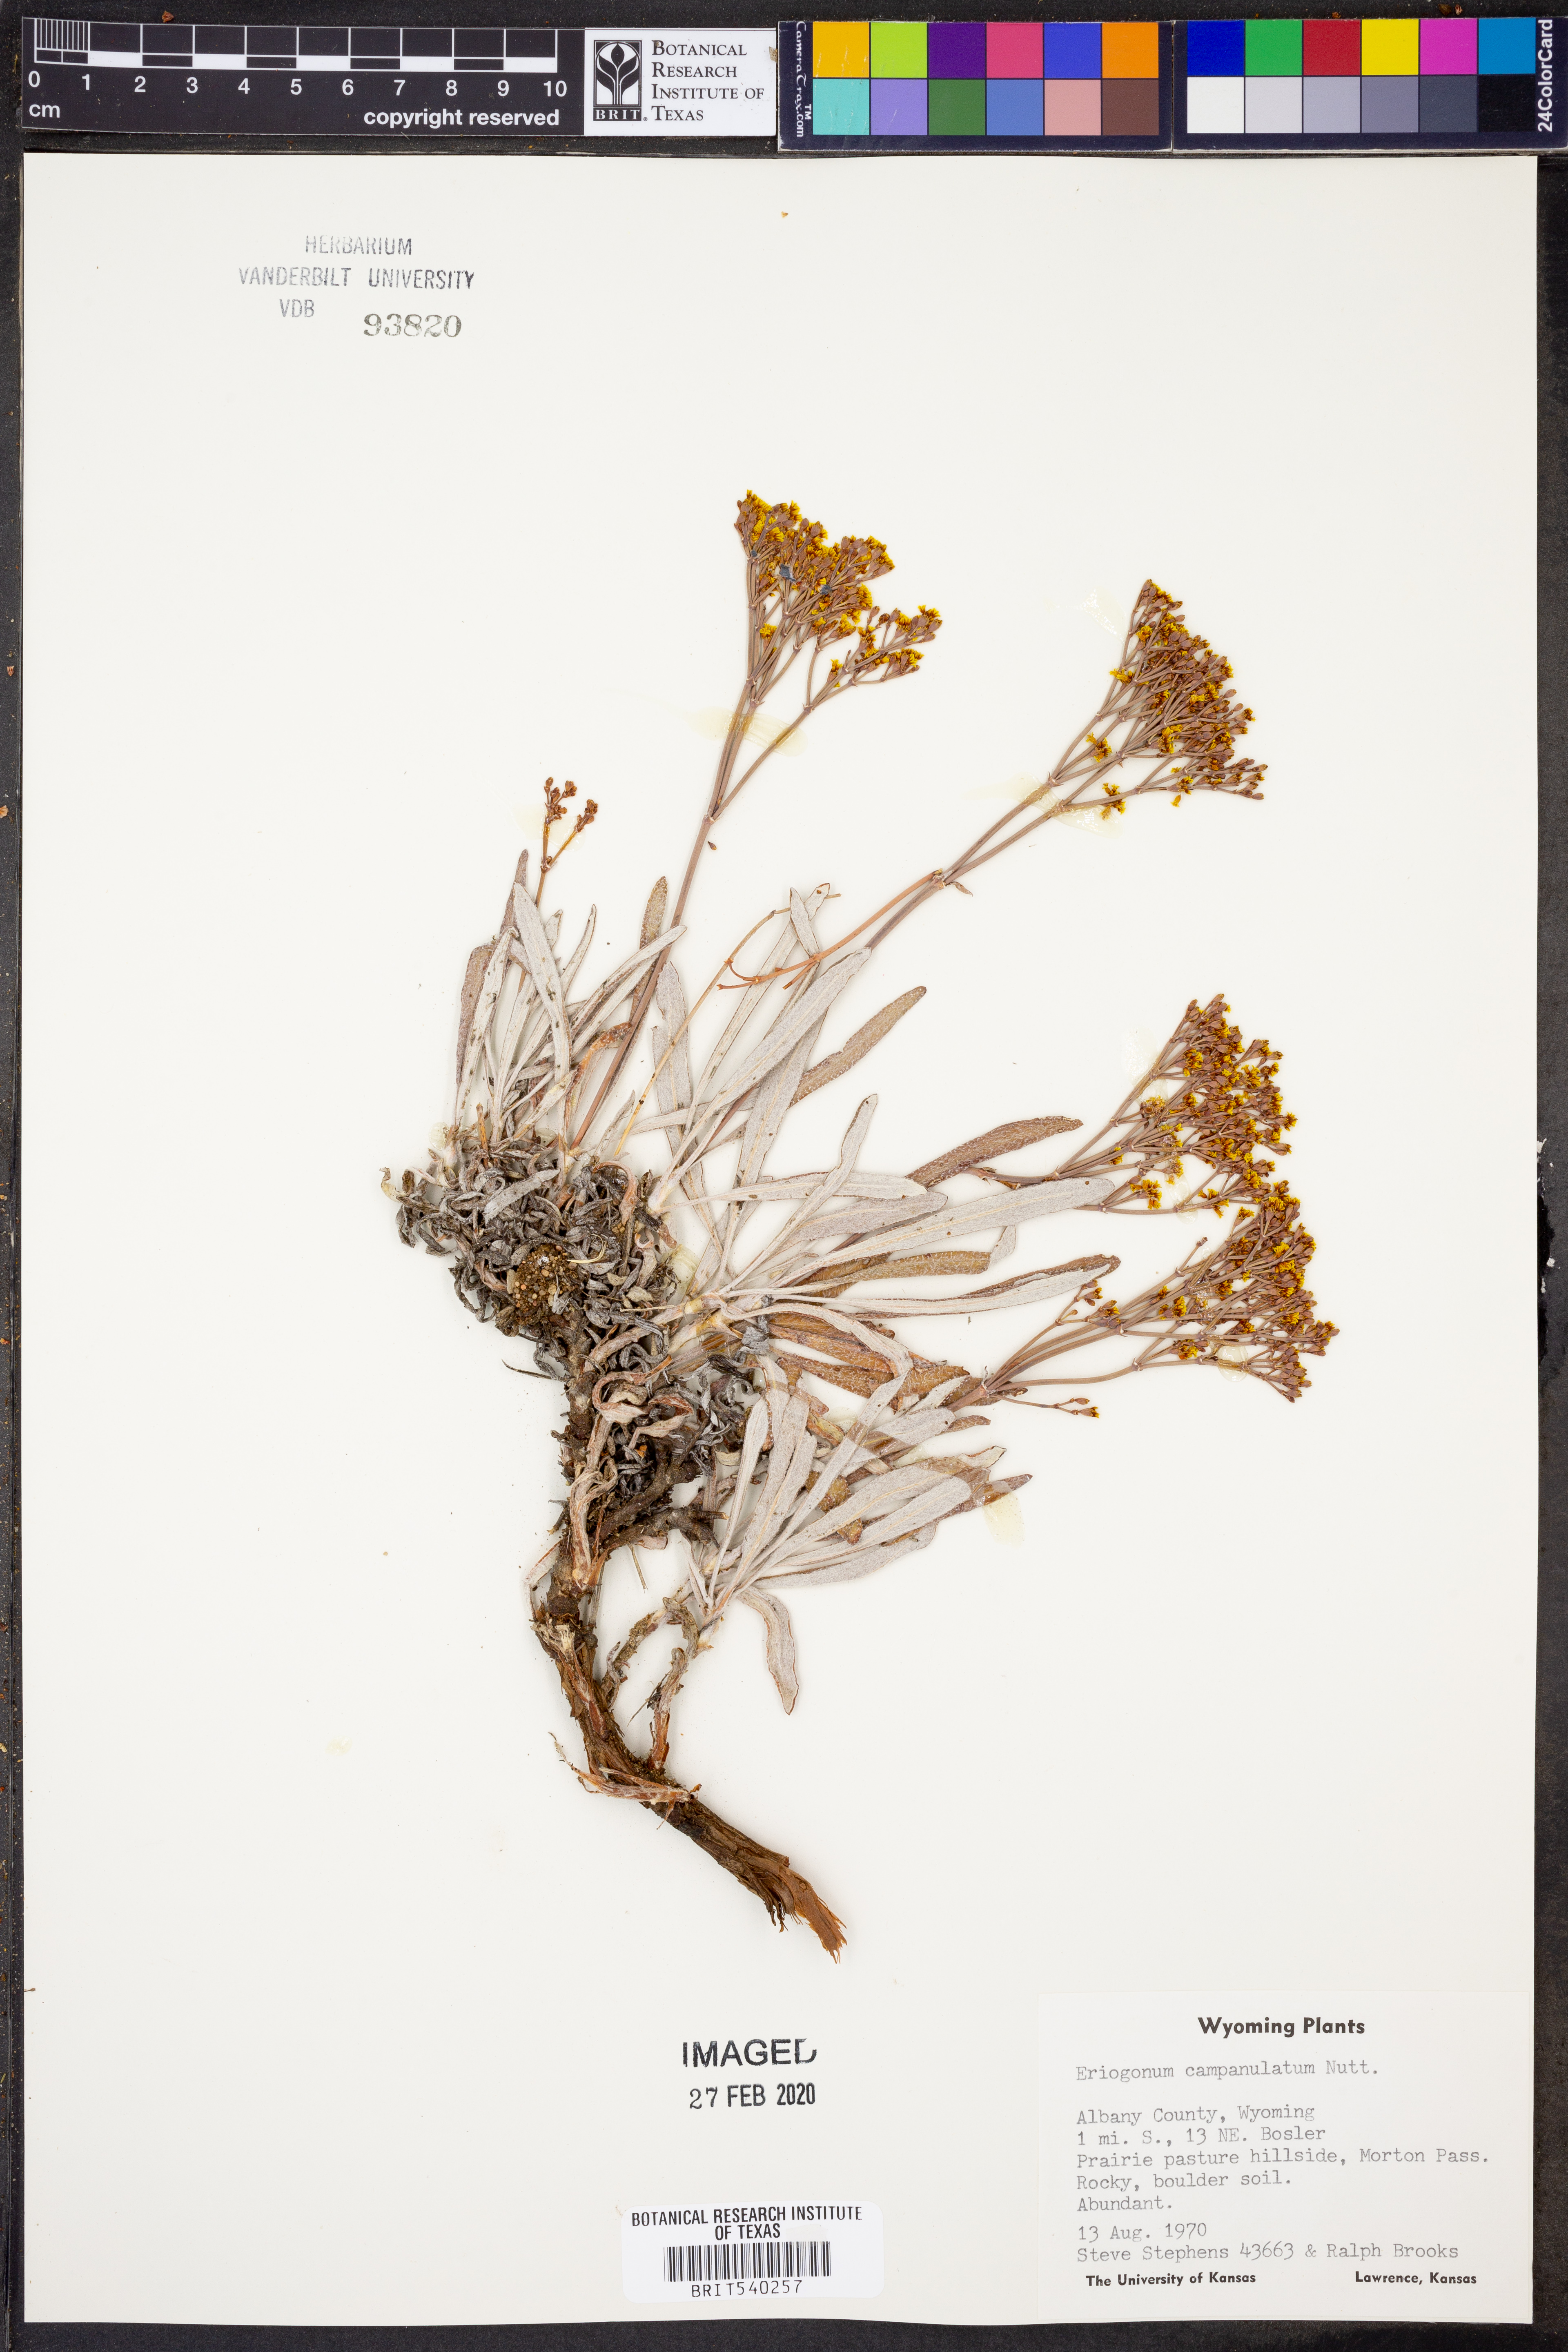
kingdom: Plantae
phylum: Tracheophyta
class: Magnoliopsida
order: Caryophyllales
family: Polygonaceae
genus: Eriogonum
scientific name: Eriogonum brevicaule
